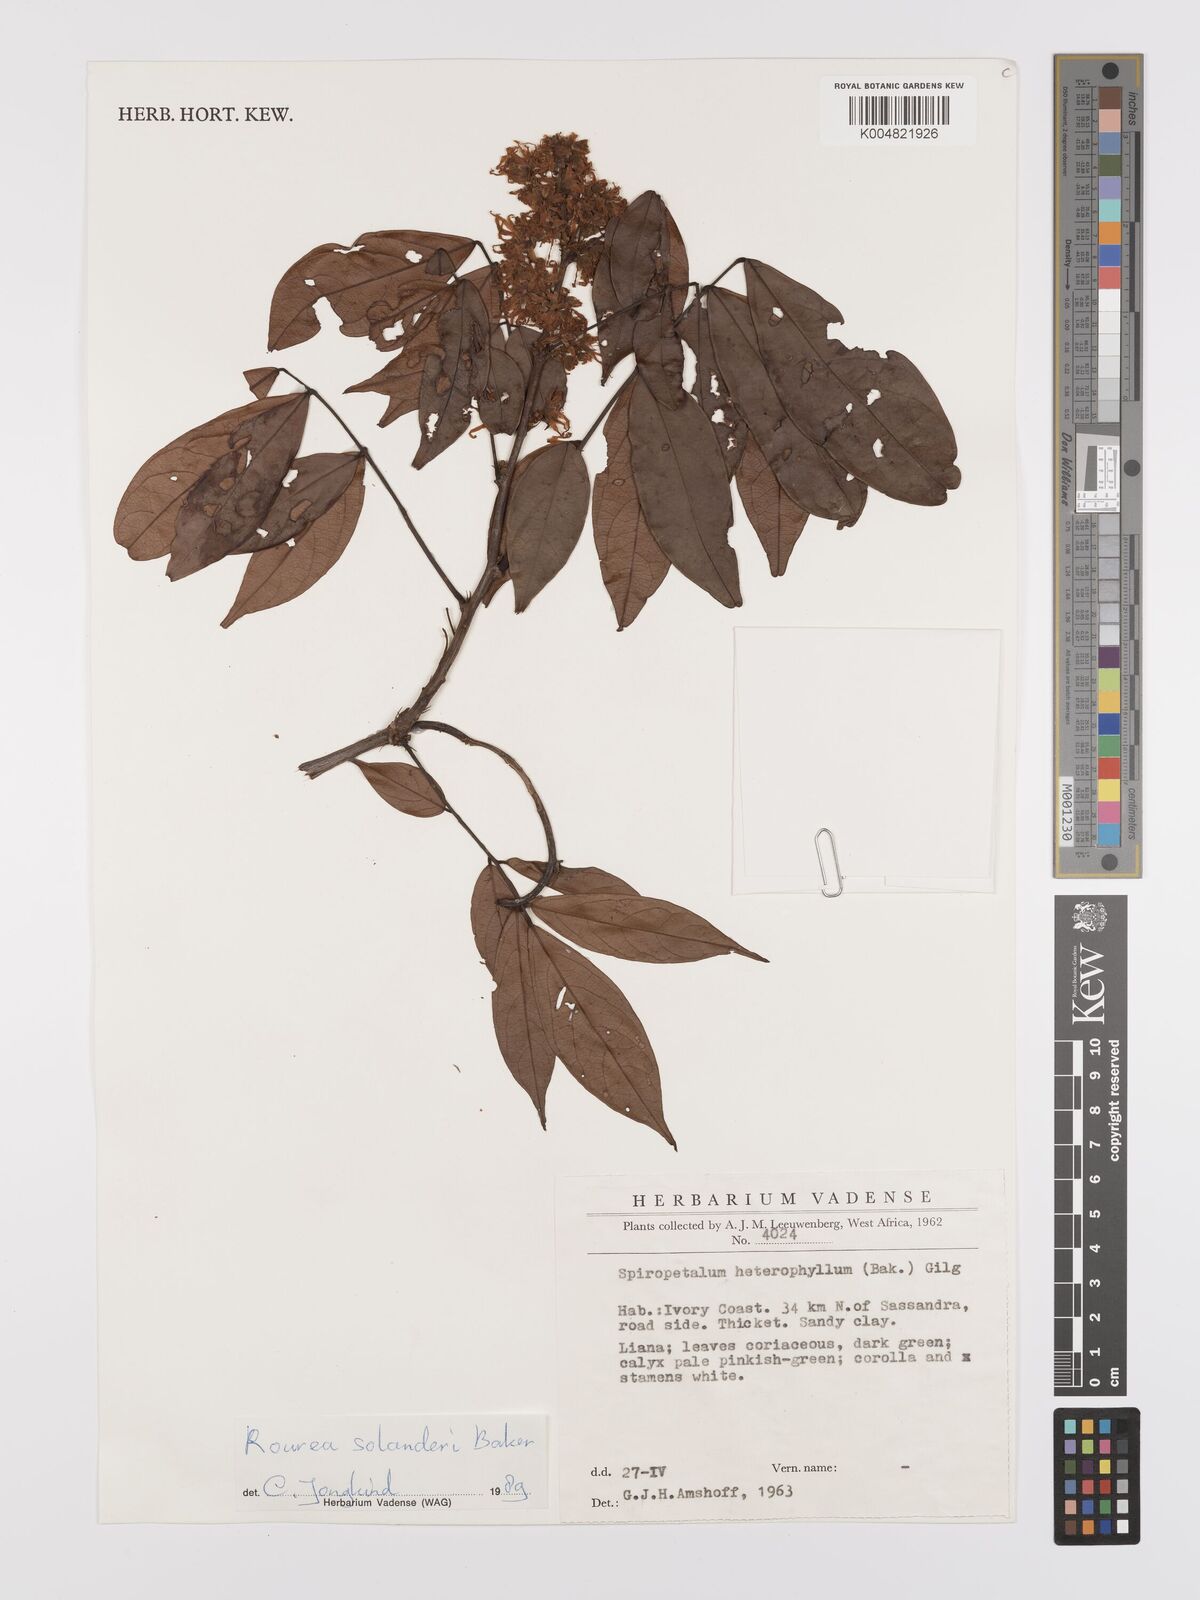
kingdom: Plantae
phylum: Tracheophyta
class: Magnoliopsida
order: Oxalidales
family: Connaraceae
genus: Rourea
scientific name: Rourea solanderi
